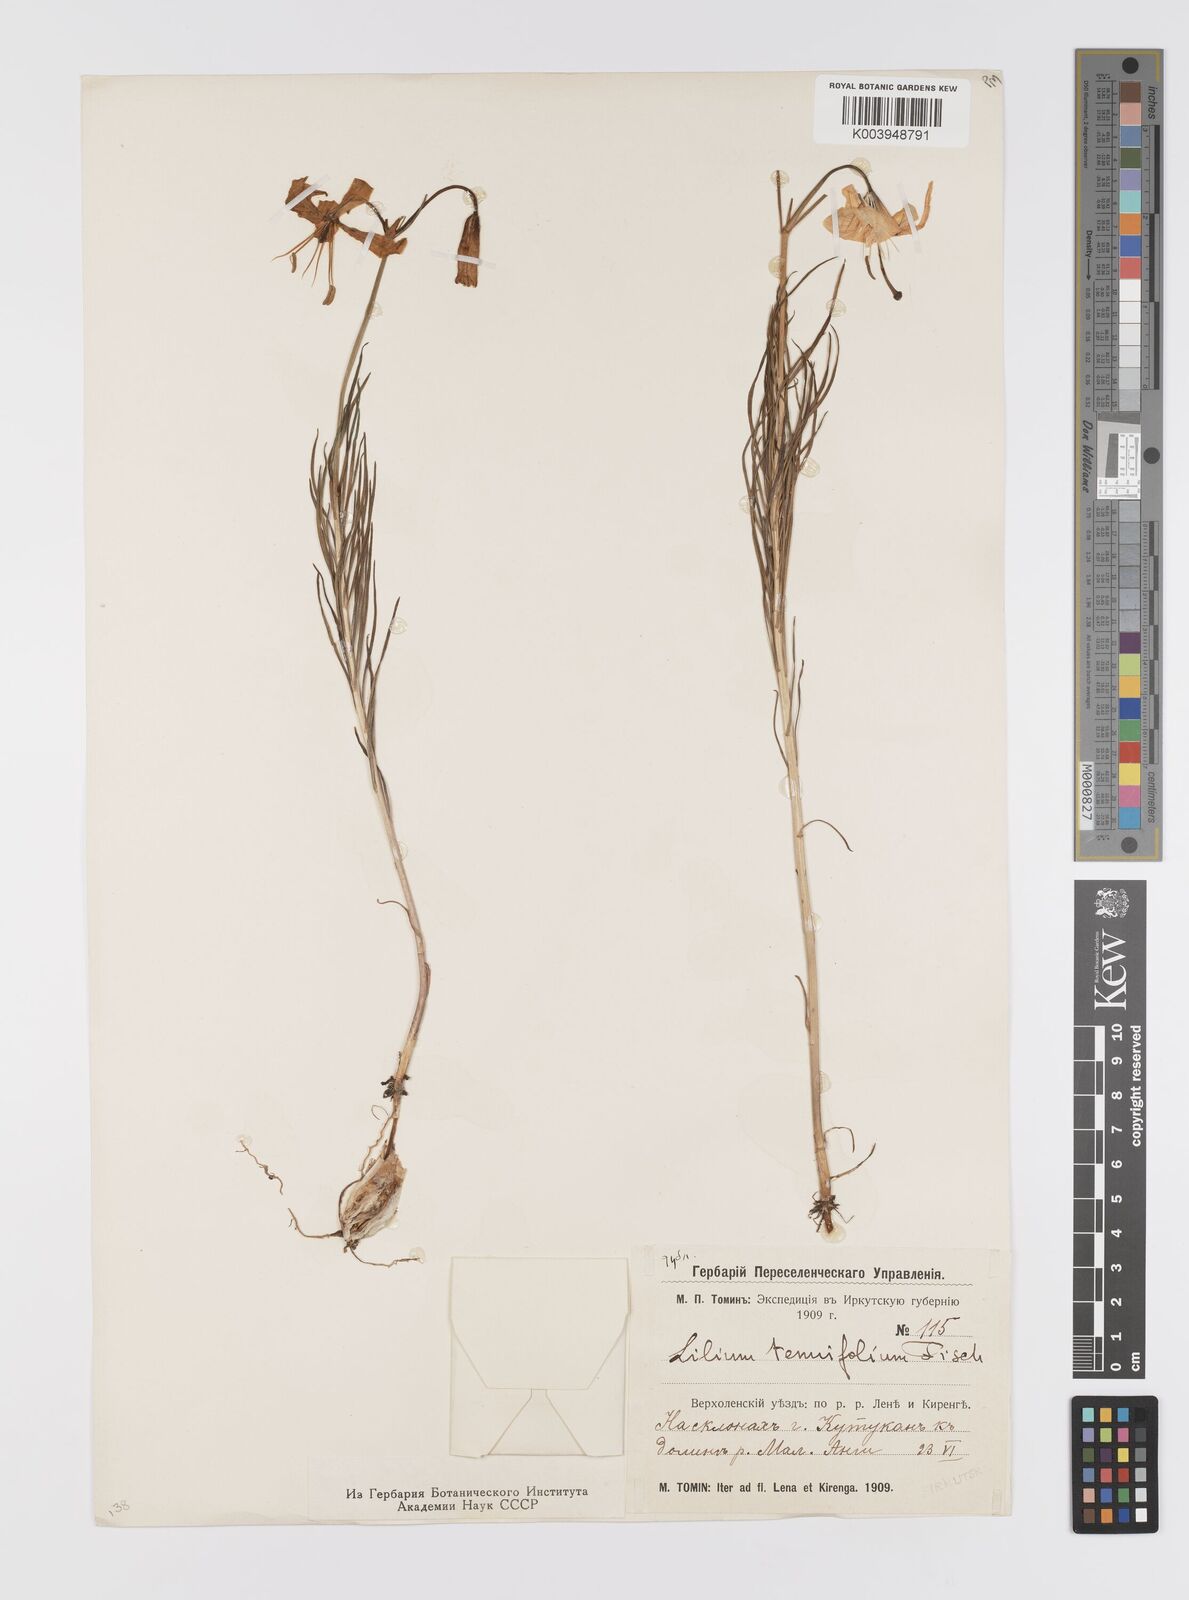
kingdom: Plantae
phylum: Tracheophyta
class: Liliopsida
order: Liliales
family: Liliaceae
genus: Lilium
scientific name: Lilium pumilum
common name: Coral lily
